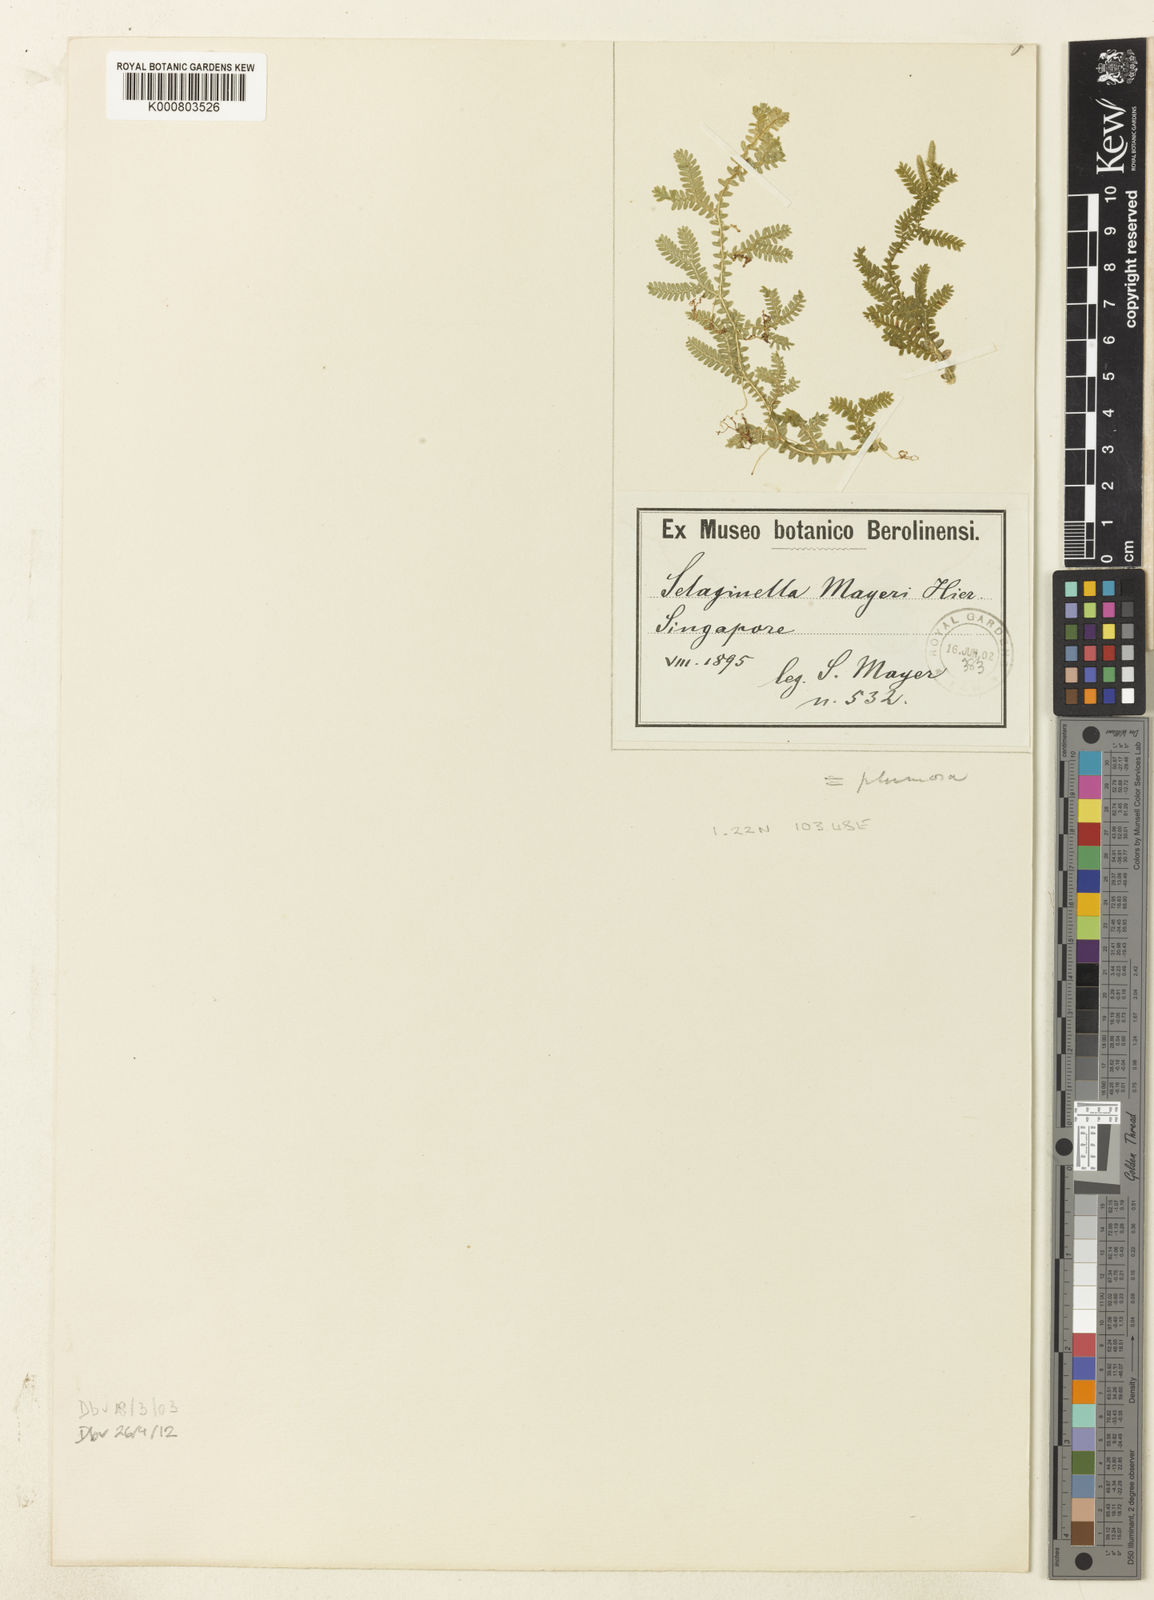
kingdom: Plantae
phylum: Tracheophyta
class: Lycopodiopsida
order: Selaginellales
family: Selaginellaceae
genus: Selaginella
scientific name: Selaginella mayeri
